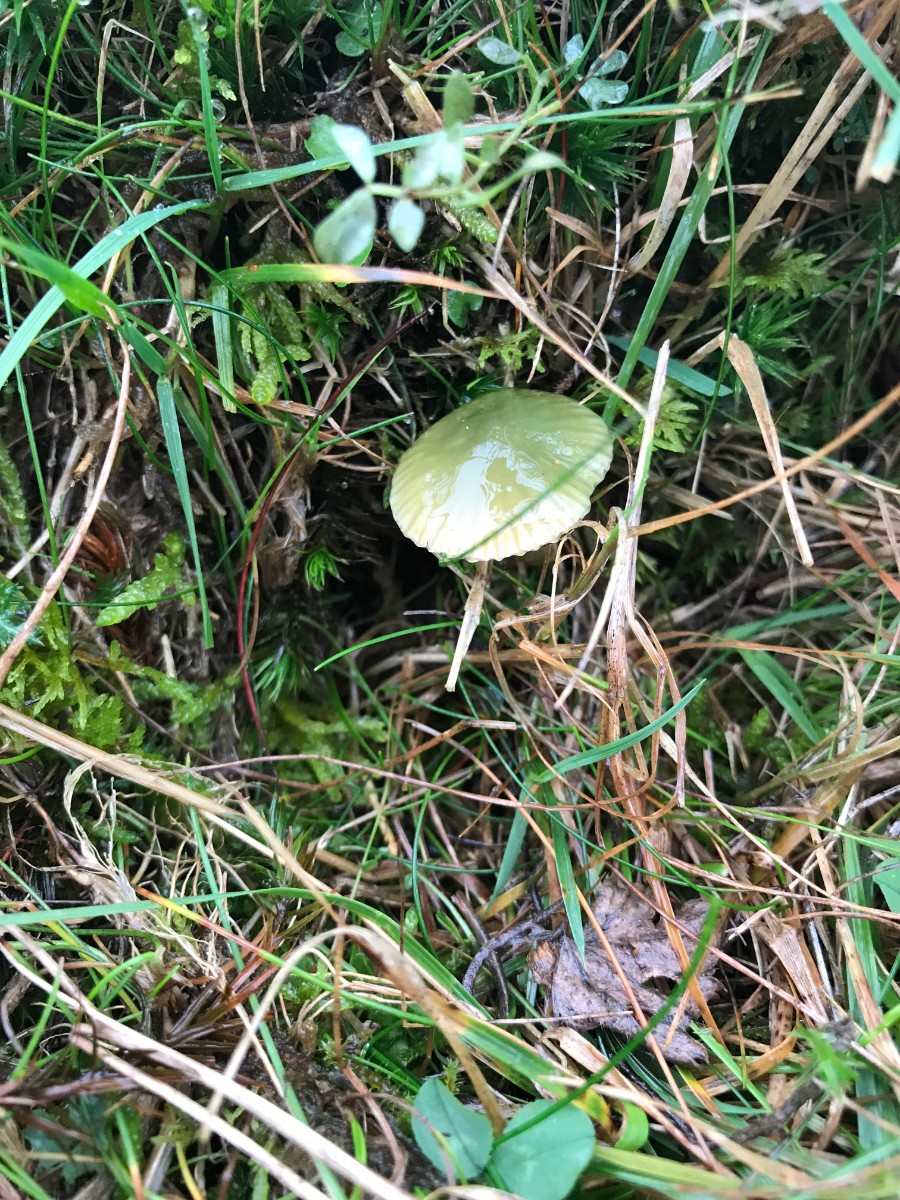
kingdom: Fungi
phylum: Basidiomycota
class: Agaricomycetes
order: Agaricales
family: Hygrophoraceae
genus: Gliophorus
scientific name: Gliophorus psittacinus
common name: papegøje-vokshat
